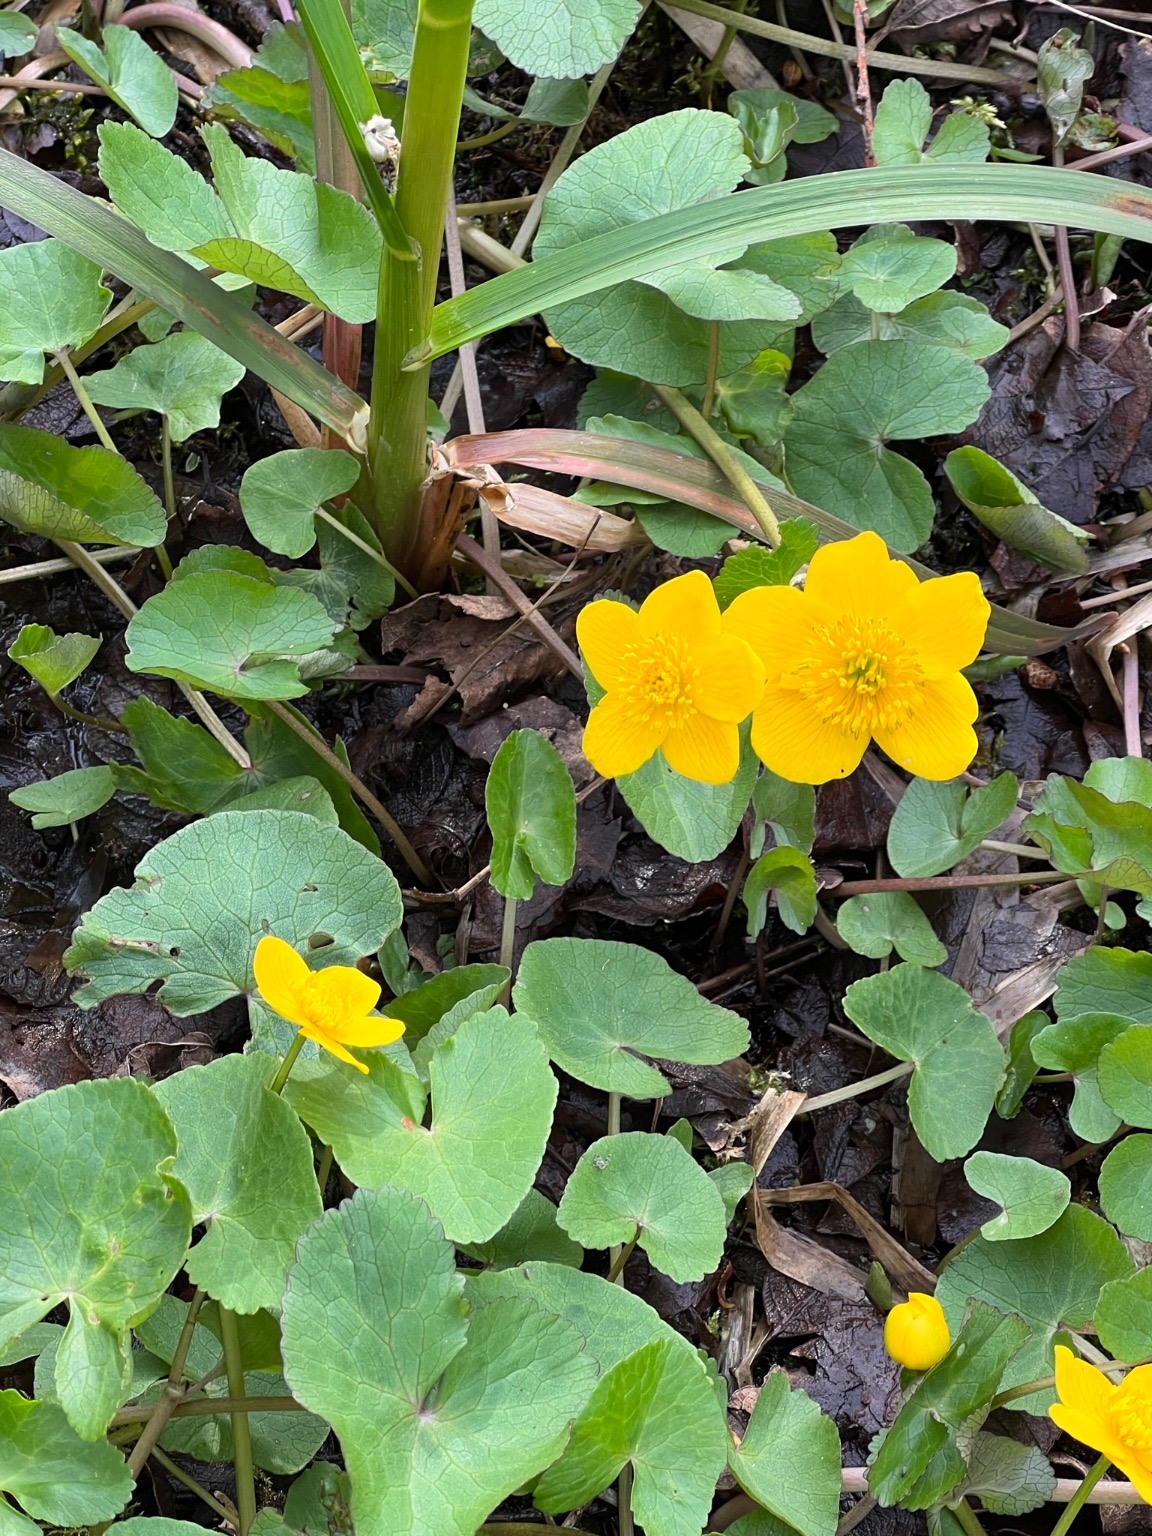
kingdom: Plantae
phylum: Tracheophyta
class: Magnoliopsida
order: Ranunculales
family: Ranunculaceae
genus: Caltha
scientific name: Caltha palustris
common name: Krybende kabbeleje
